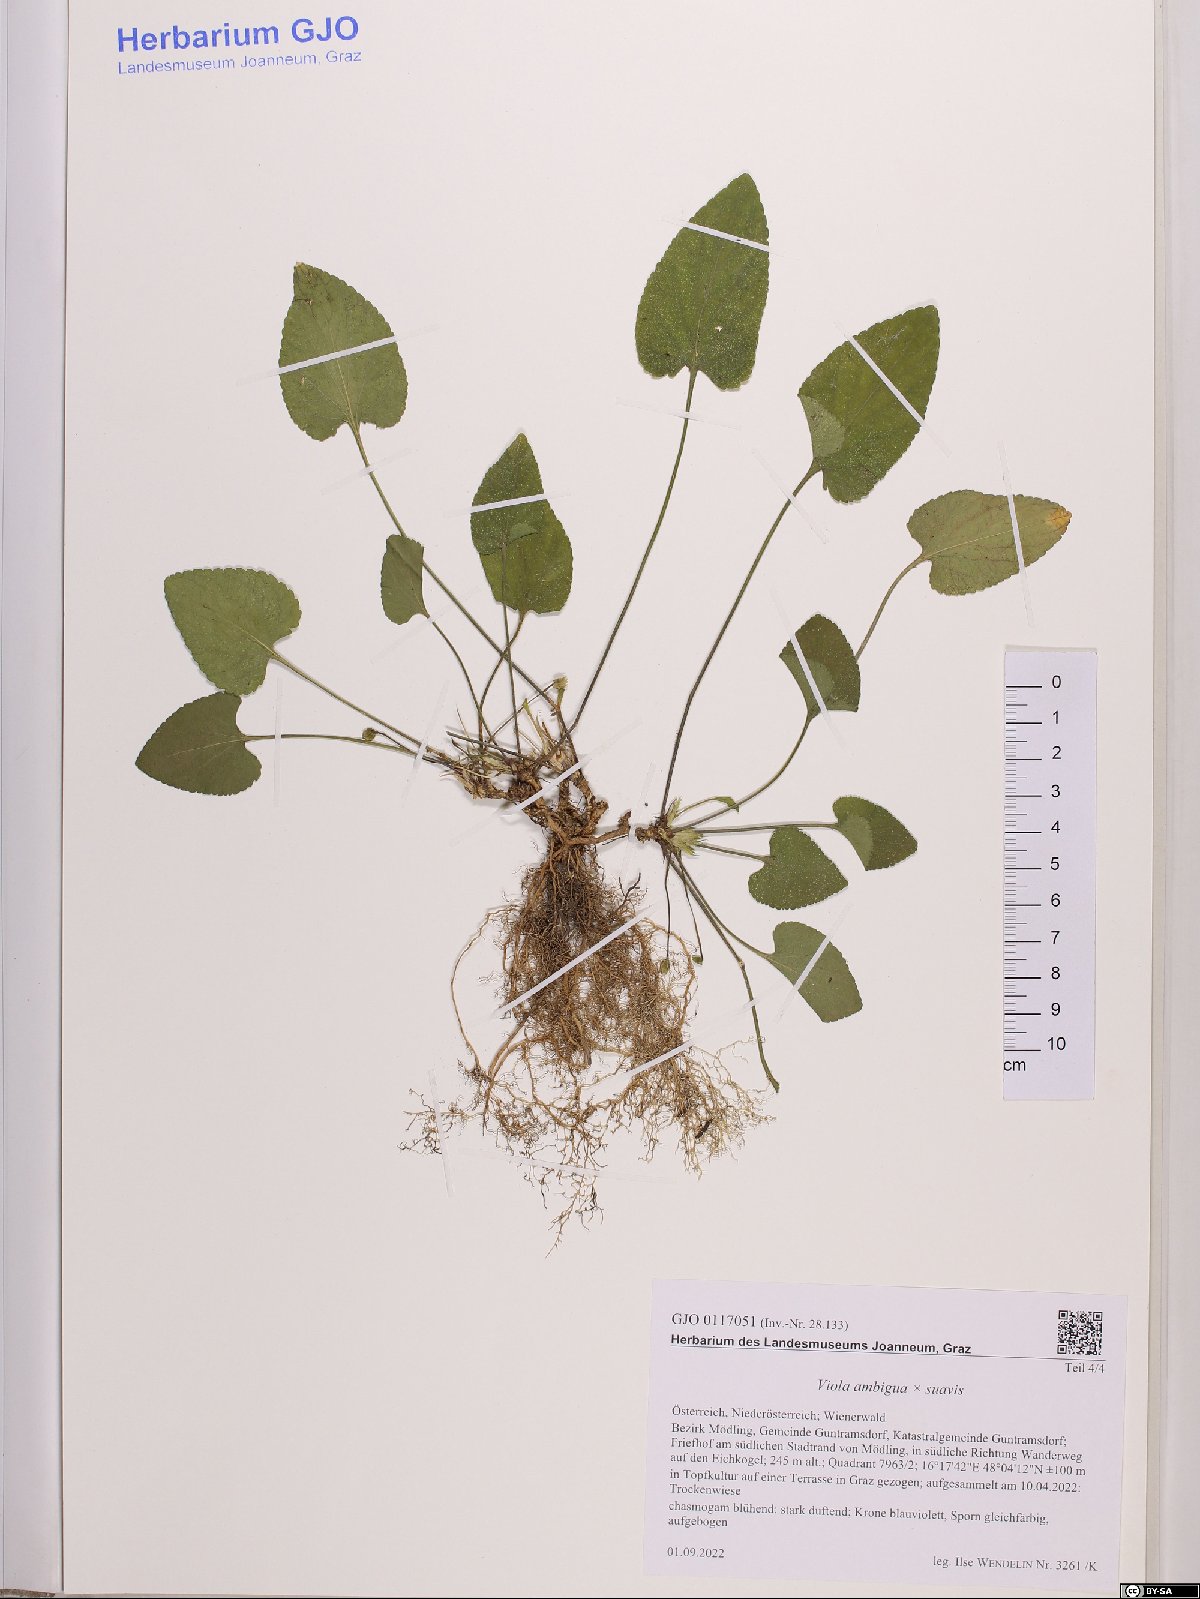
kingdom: Plantae
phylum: Tracheophyta
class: Magnoliopsida
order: Malpighiales
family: Violaceae
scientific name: Violaceae
